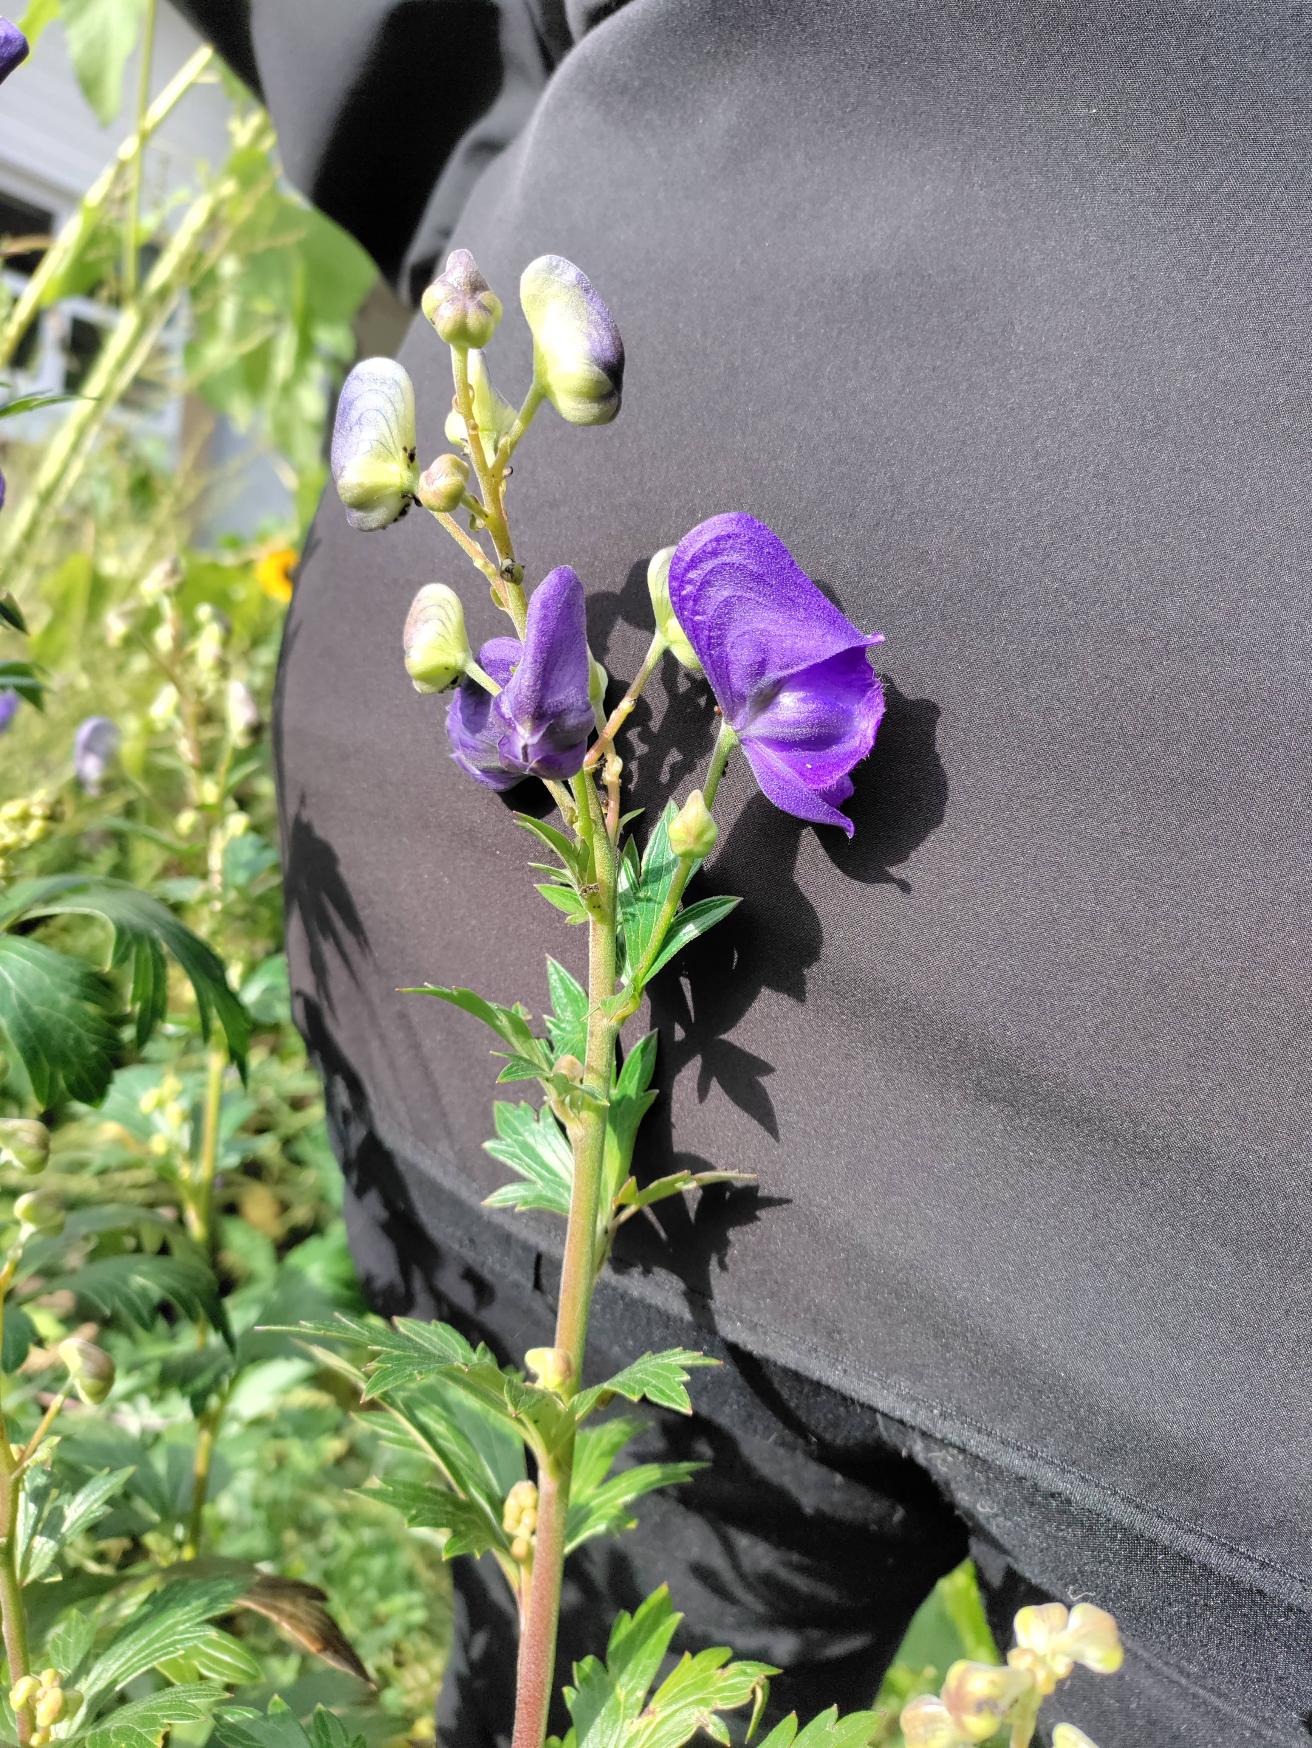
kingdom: Plantae
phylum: Tracheophyta
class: Magnoliopsida
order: Ranunculales
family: Ranunculaceae
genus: Aconitum
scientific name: Aconitum cammarum
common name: Have-stormhat
